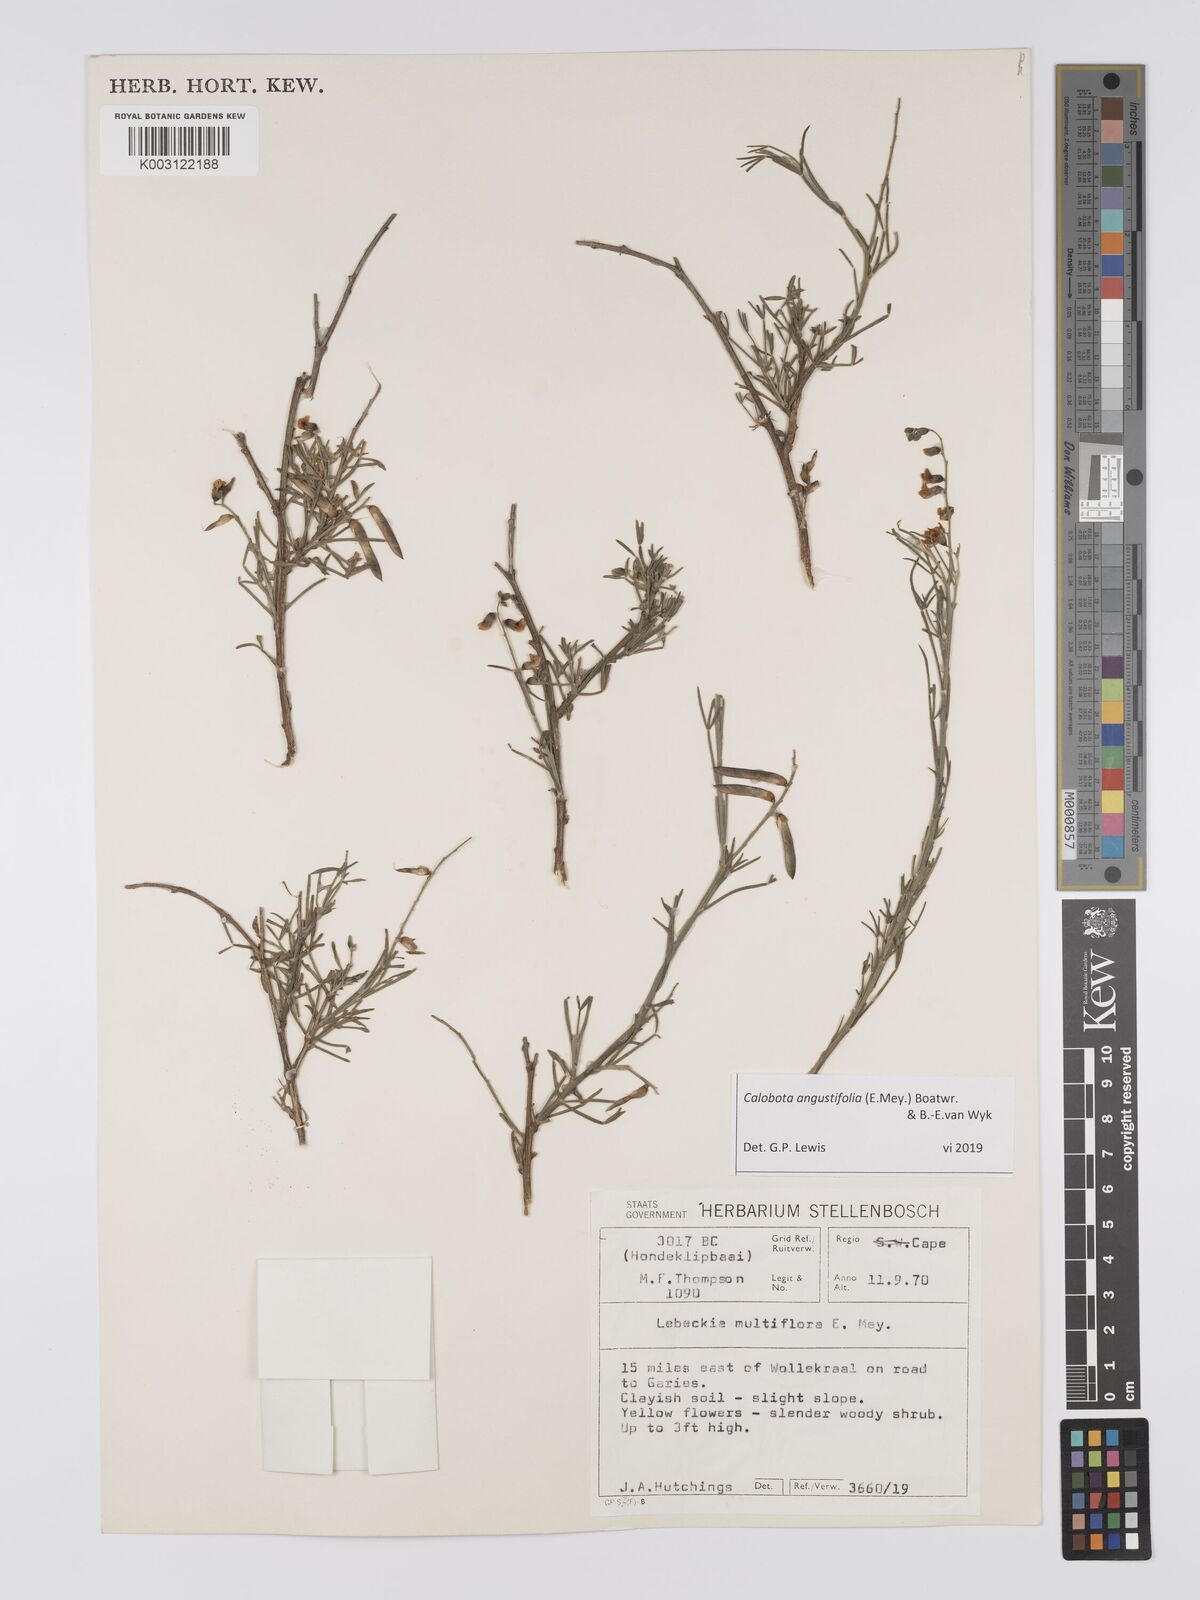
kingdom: Plantae
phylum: Tracheophyta
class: Magnoliopsida
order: Fabales
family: Fabaceae
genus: Calobota
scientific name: Calobota angustifolia
